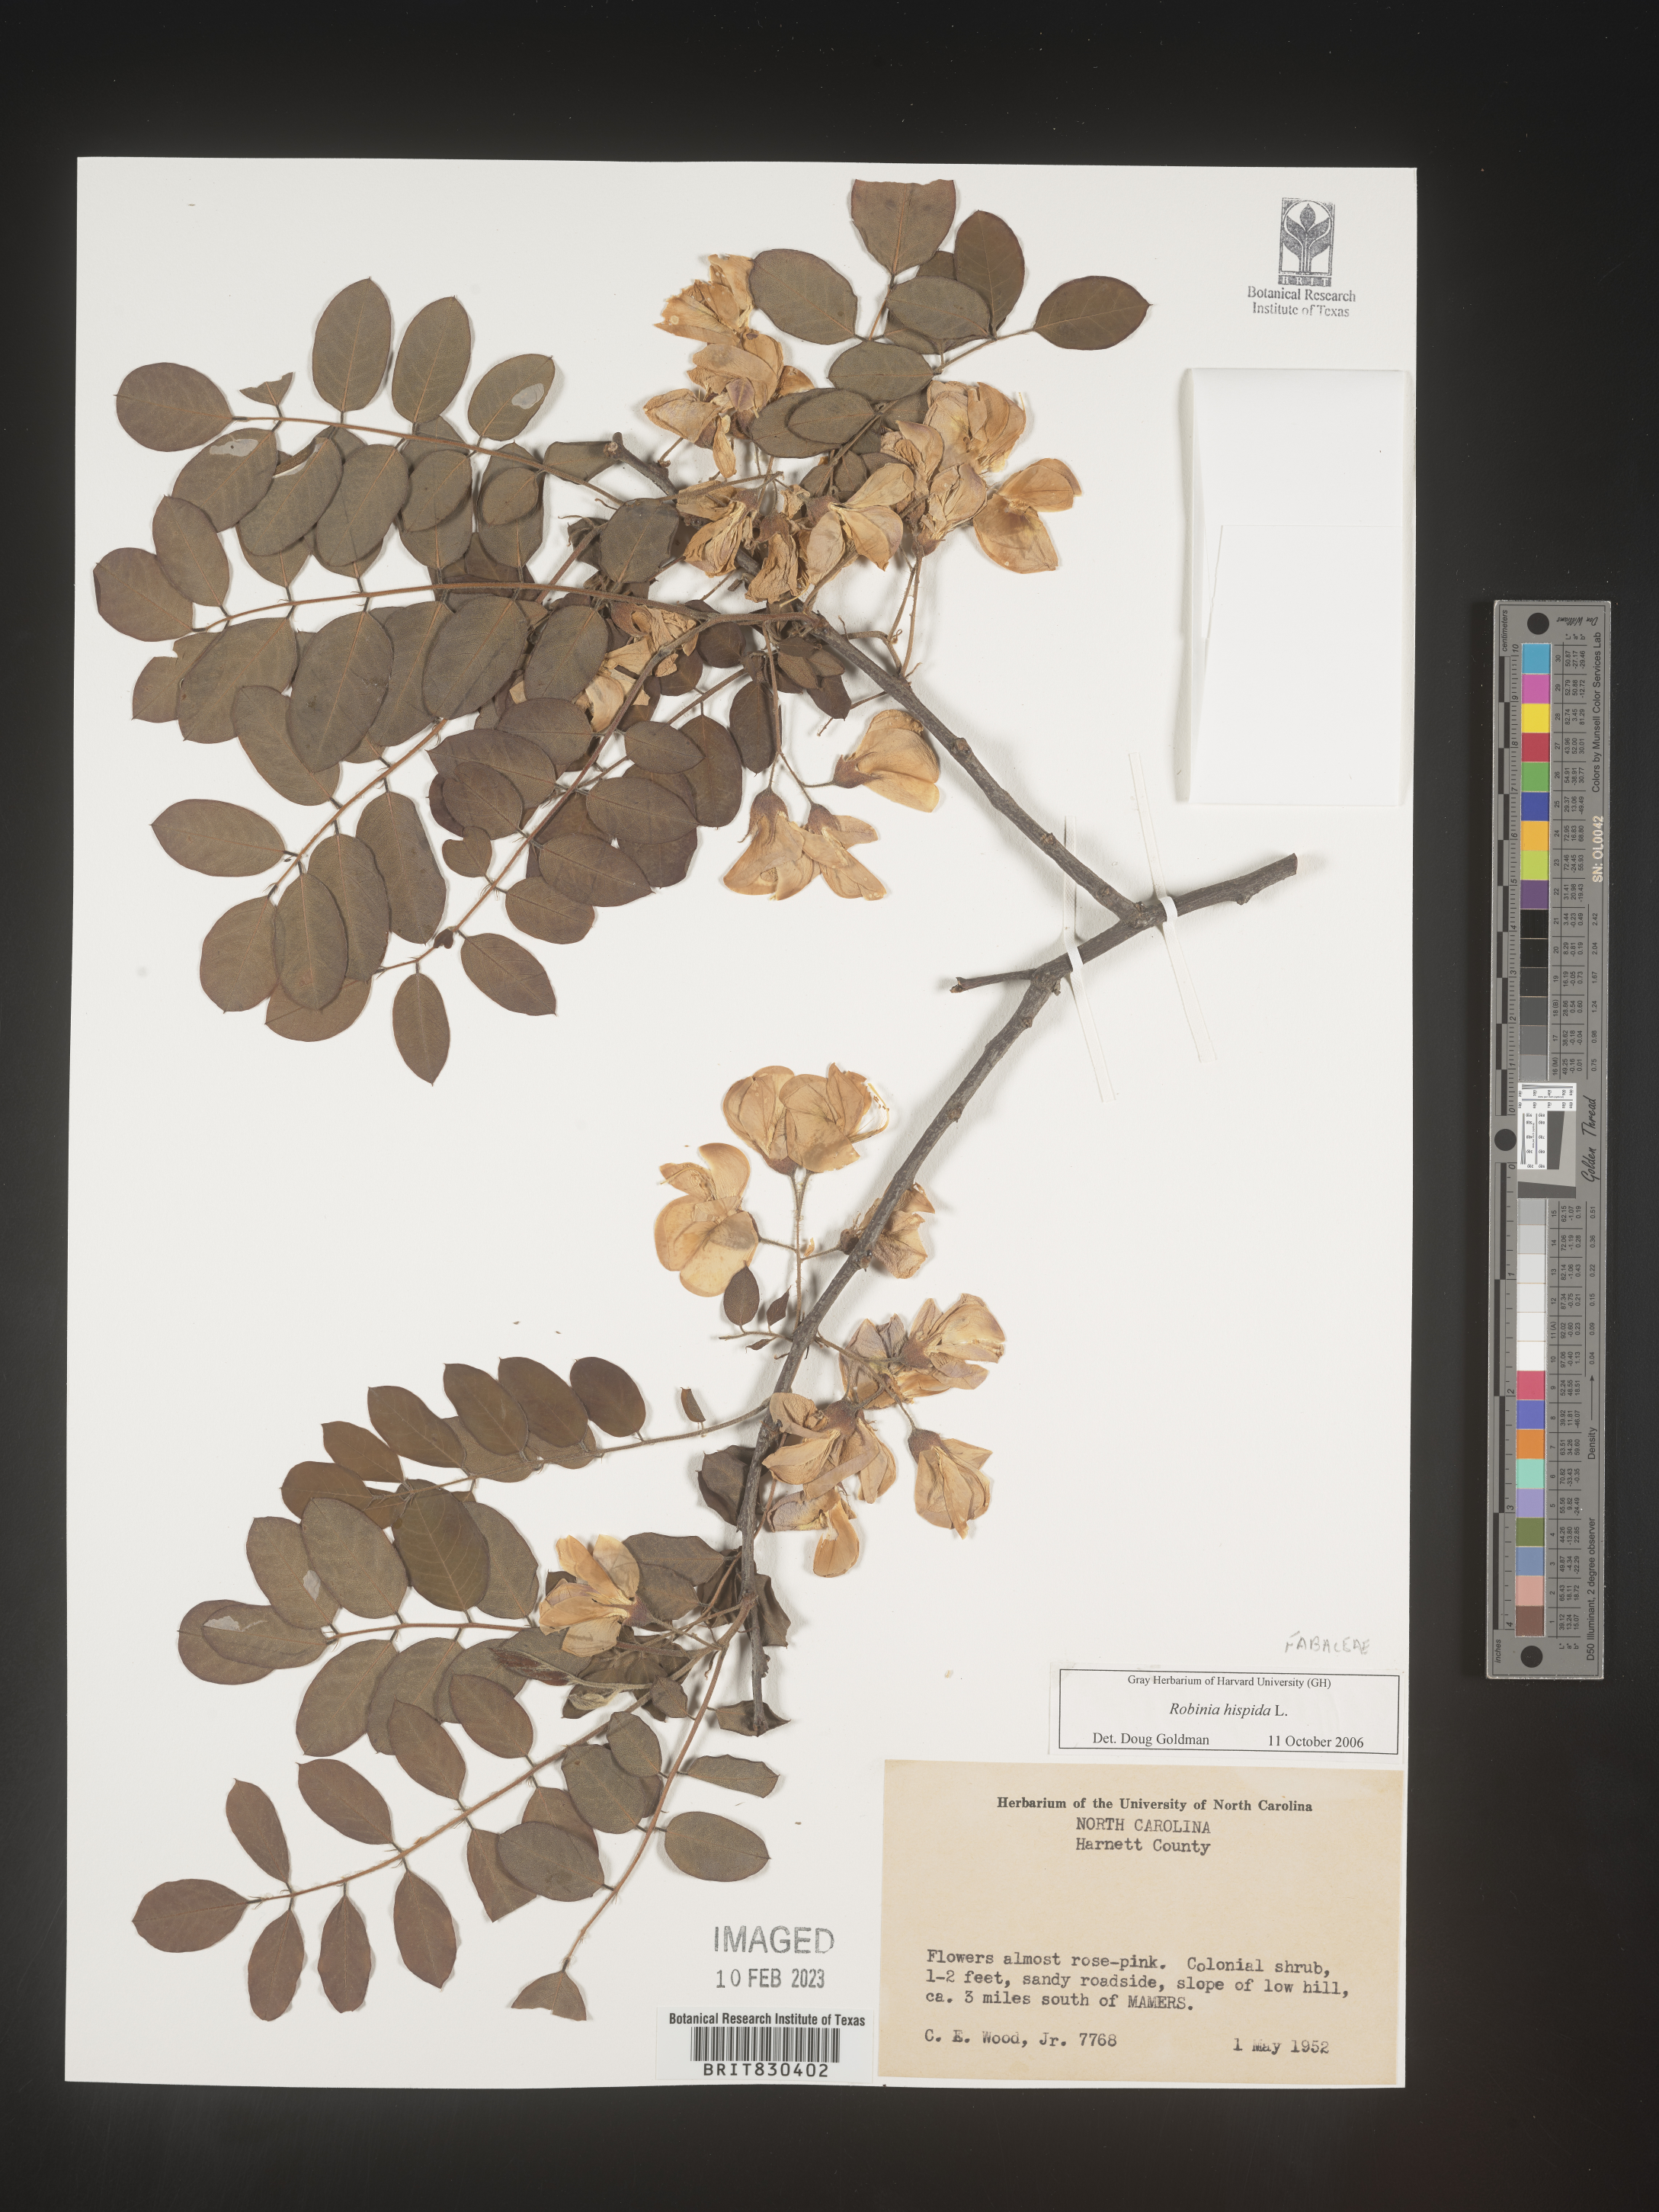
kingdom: Plantae
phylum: Tracheophyta
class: Magnoliopsida
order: Fabales
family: Fabaceae
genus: Robinia
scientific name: Robinia hispida
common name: Bristly locust
